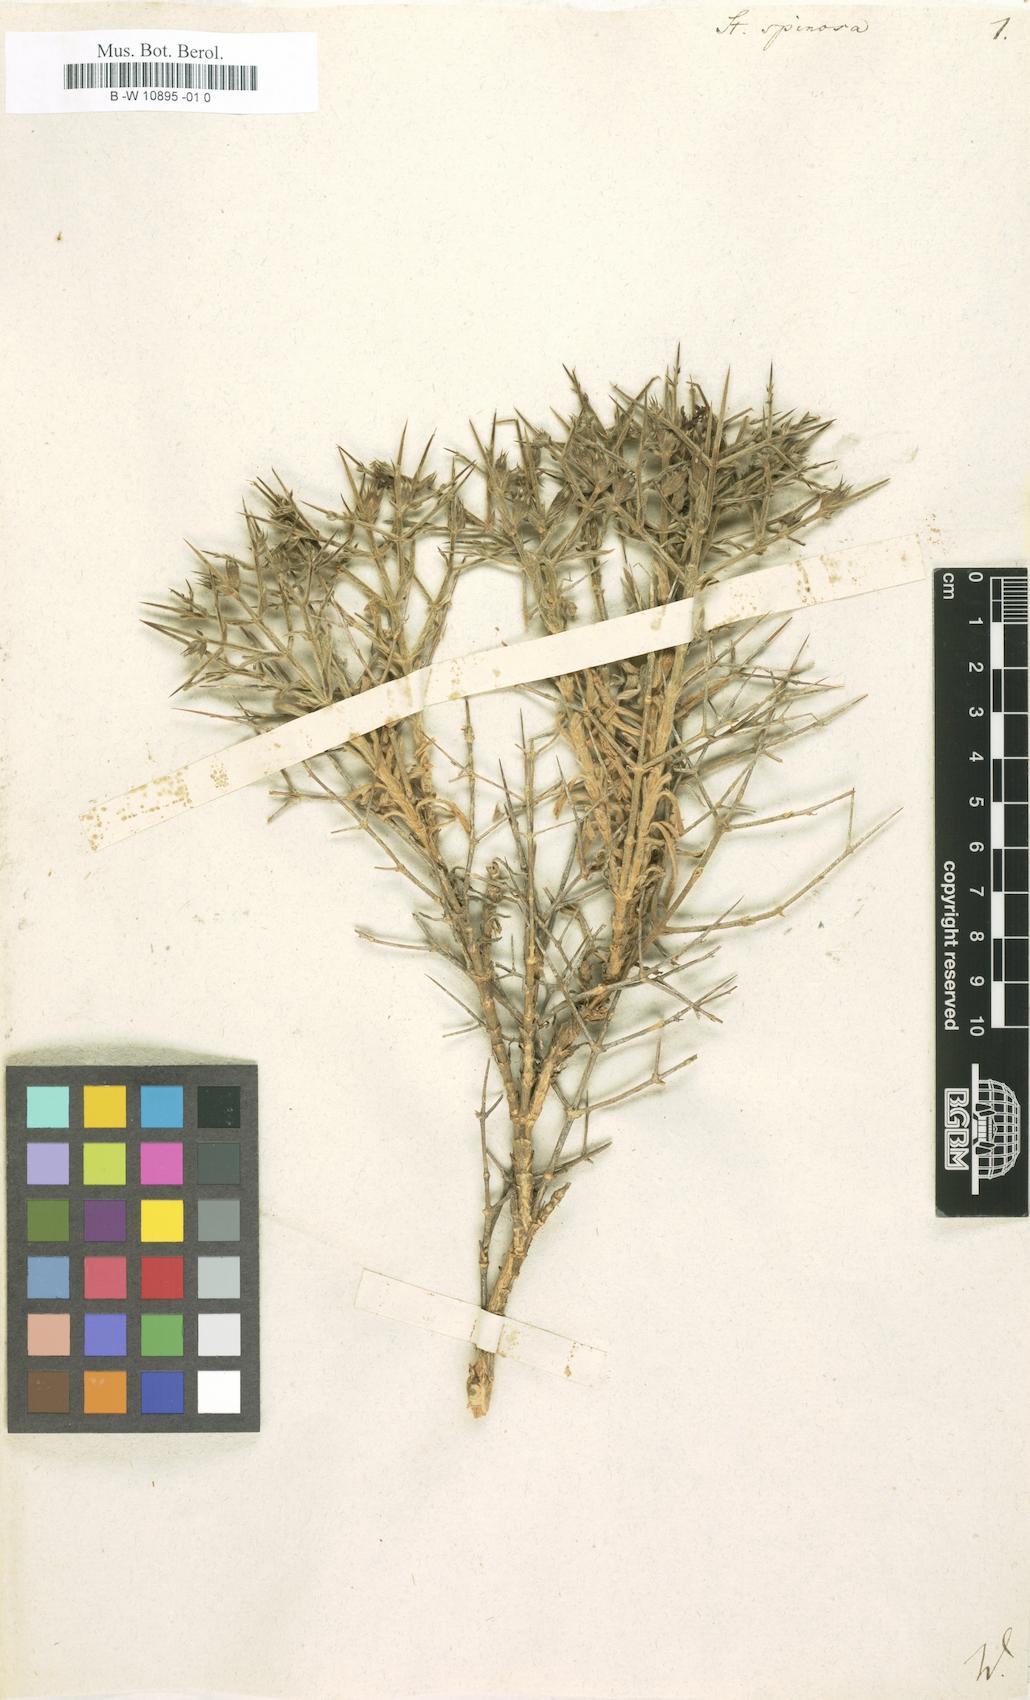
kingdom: Plantae
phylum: Tracheophyta
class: Magnoliopsida
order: Lamiales
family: Lamiaceae
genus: Stachys
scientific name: Stachys spinosa
